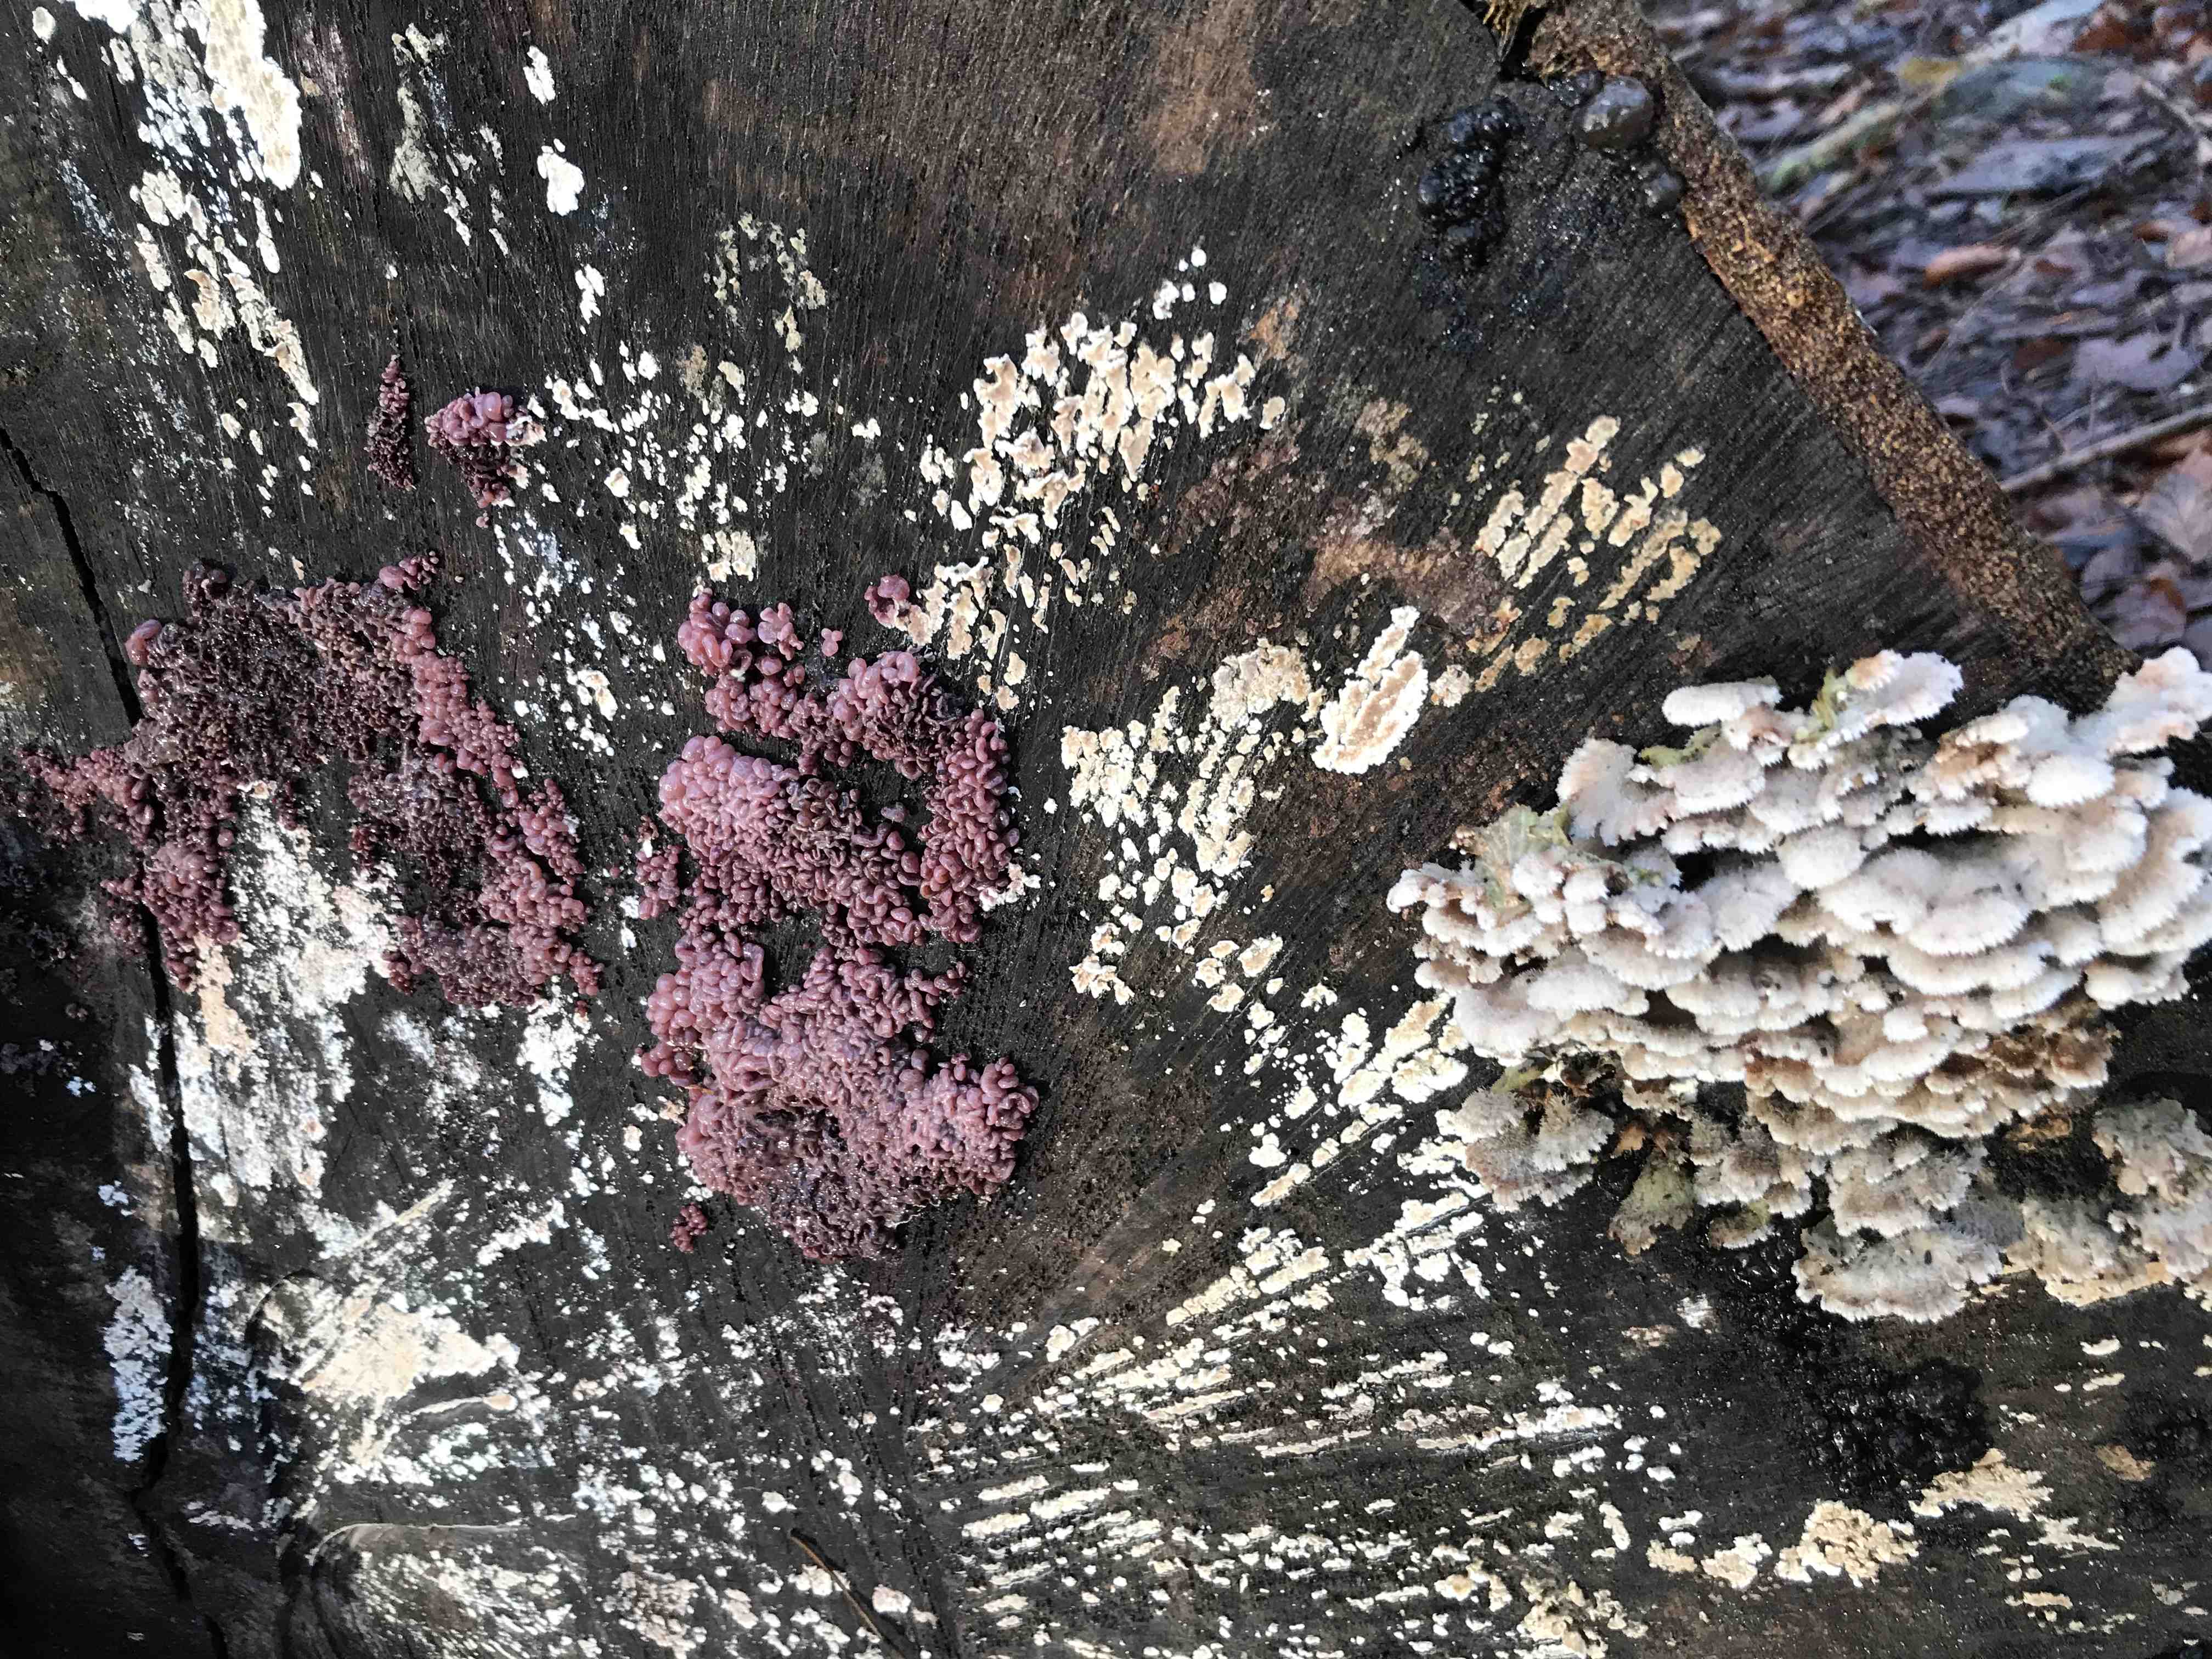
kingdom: Fungi
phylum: Ascomycota
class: Leotiomycetes
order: Helotiales
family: Gelatinodiscaceae
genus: Ascocoryne
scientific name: Ascocoryne sarcoides
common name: rødlilla sejskive
